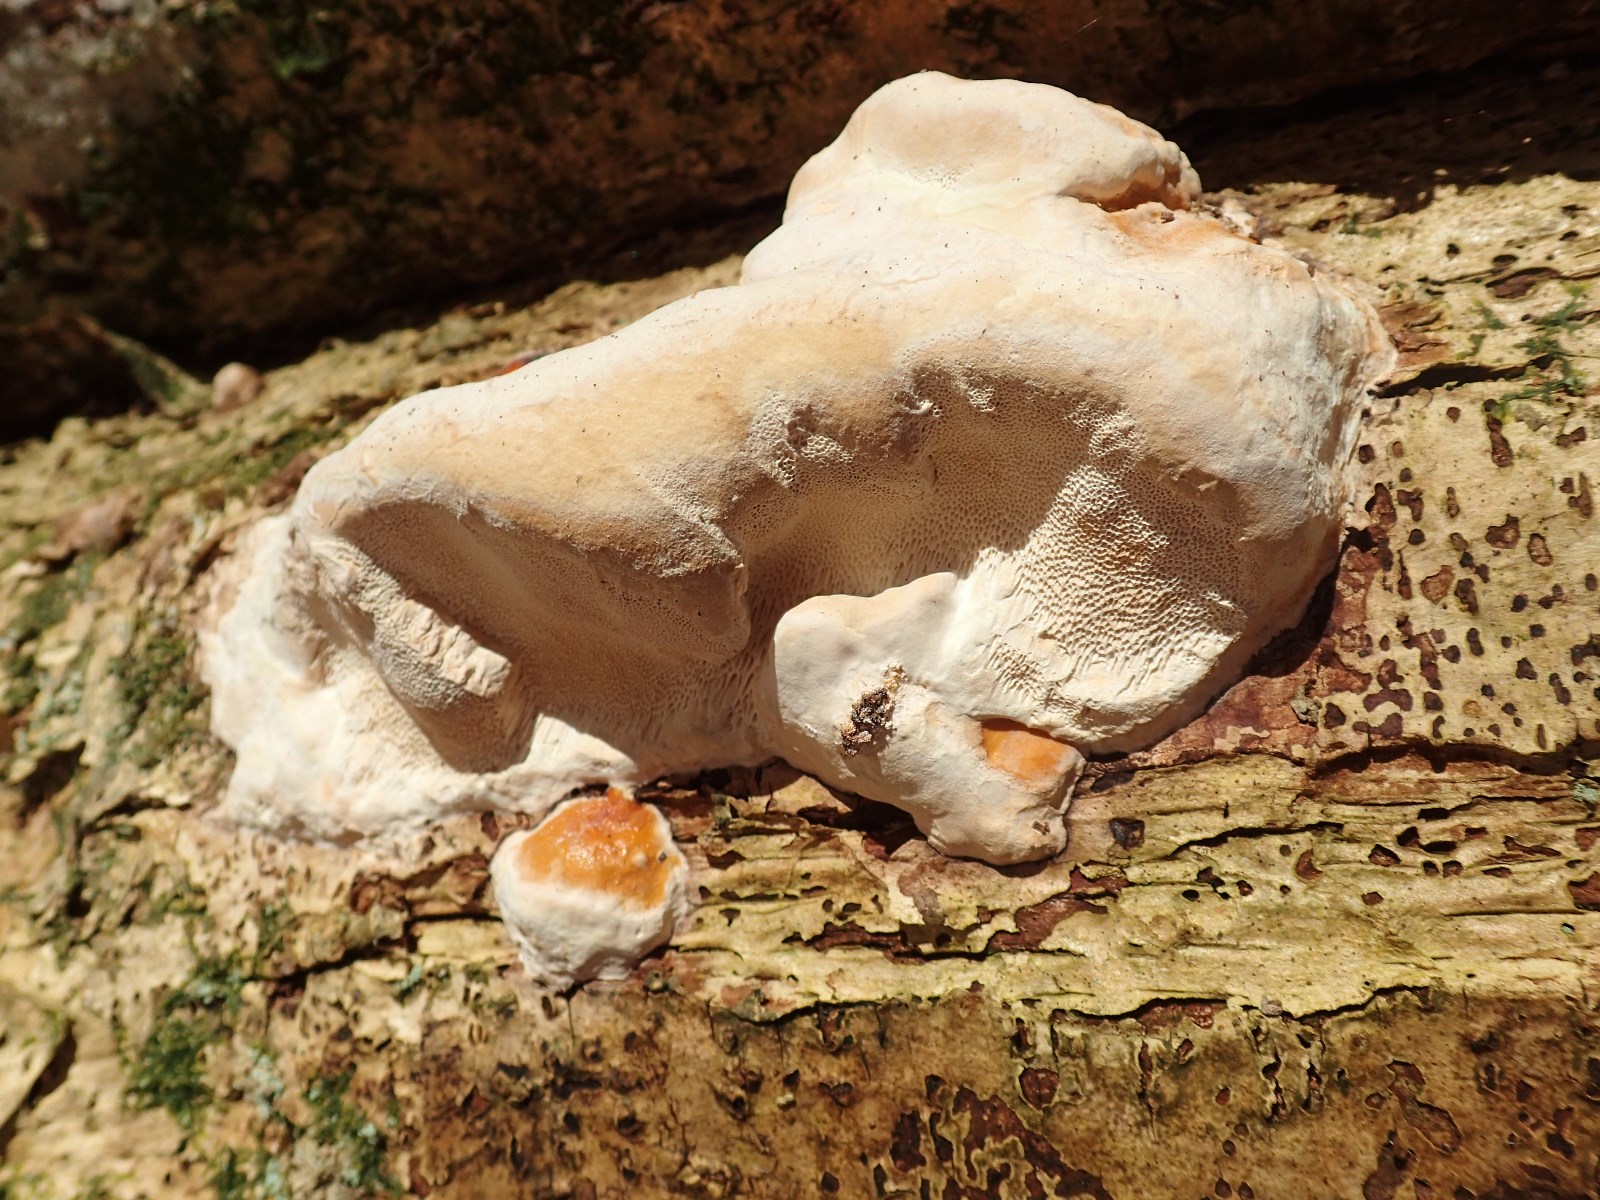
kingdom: Fungi
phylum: Basidiomycota
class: Agaricomycetes
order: Polyporales
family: Fomitopsidaceae
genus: Fomitopsis
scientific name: Fomitopsis pinicola
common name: randbæltet hovporesvamp
